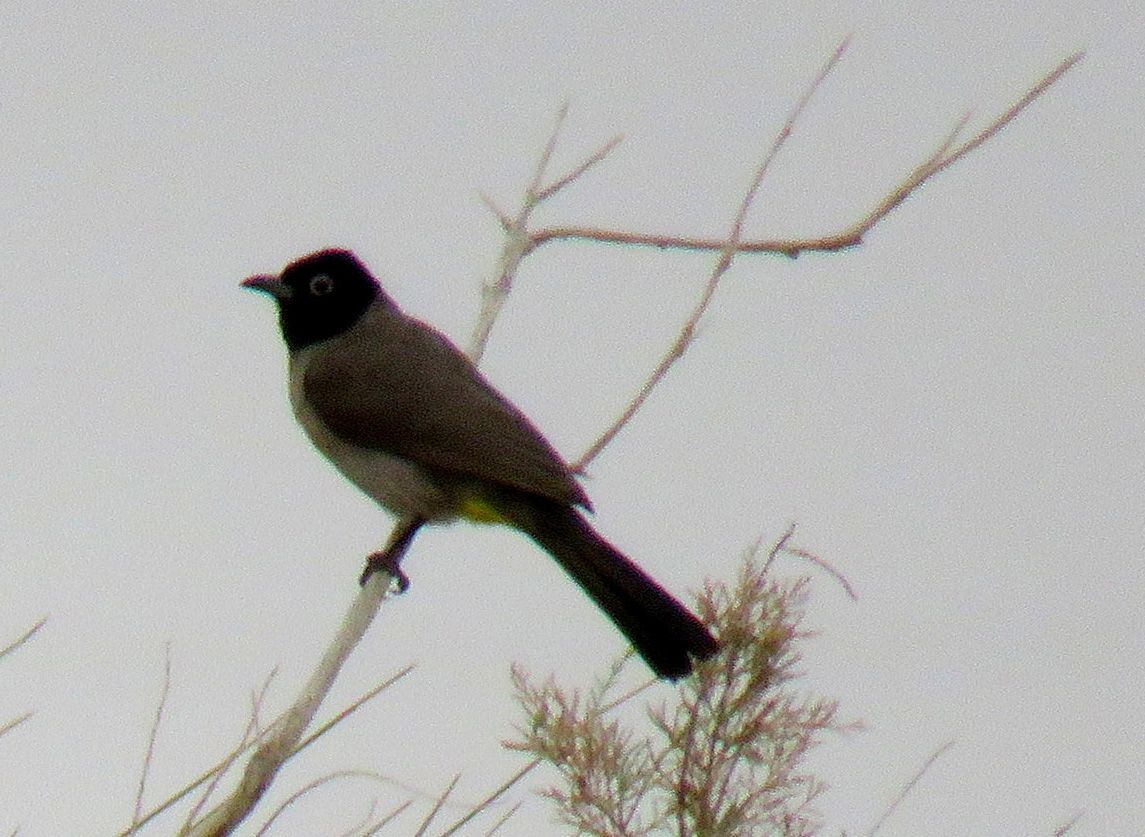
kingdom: Animalia
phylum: Chordata
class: Aves
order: Passeriformes
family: Pycnonotidae
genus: Pycnonotus
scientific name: Pycnonotus xanthopygos
